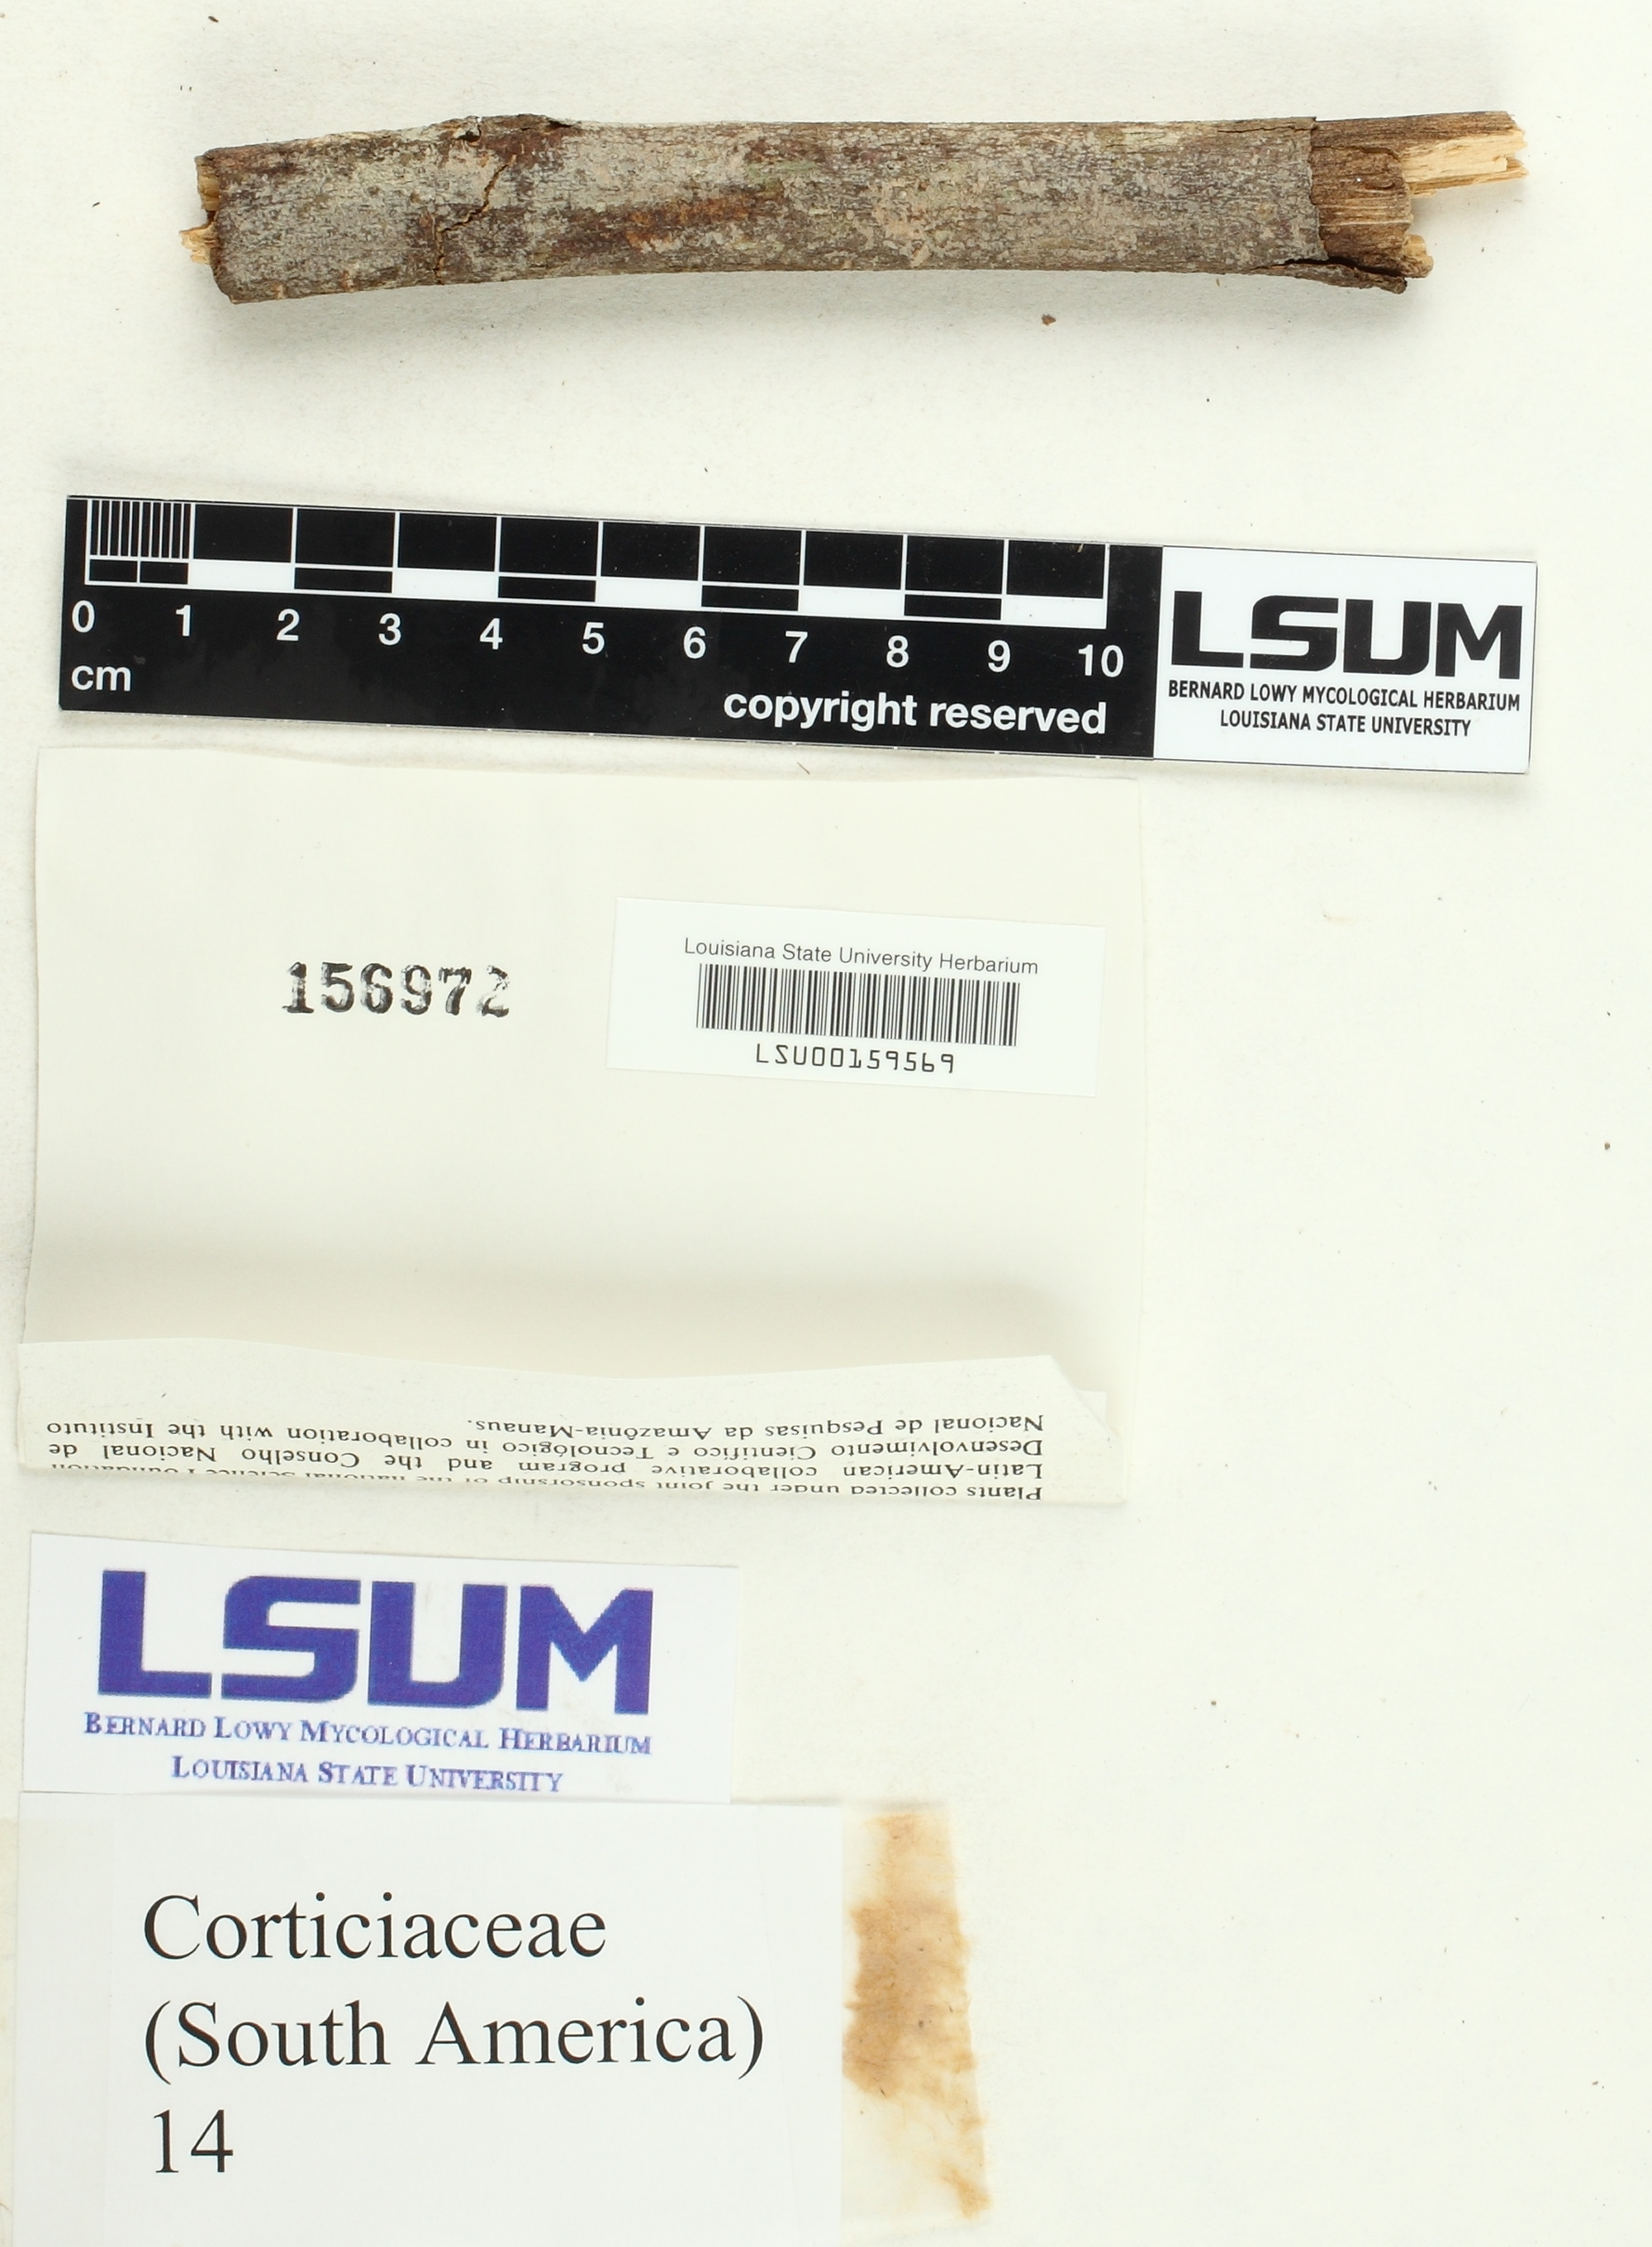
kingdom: Fungi
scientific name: Fungi
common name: Fungi
